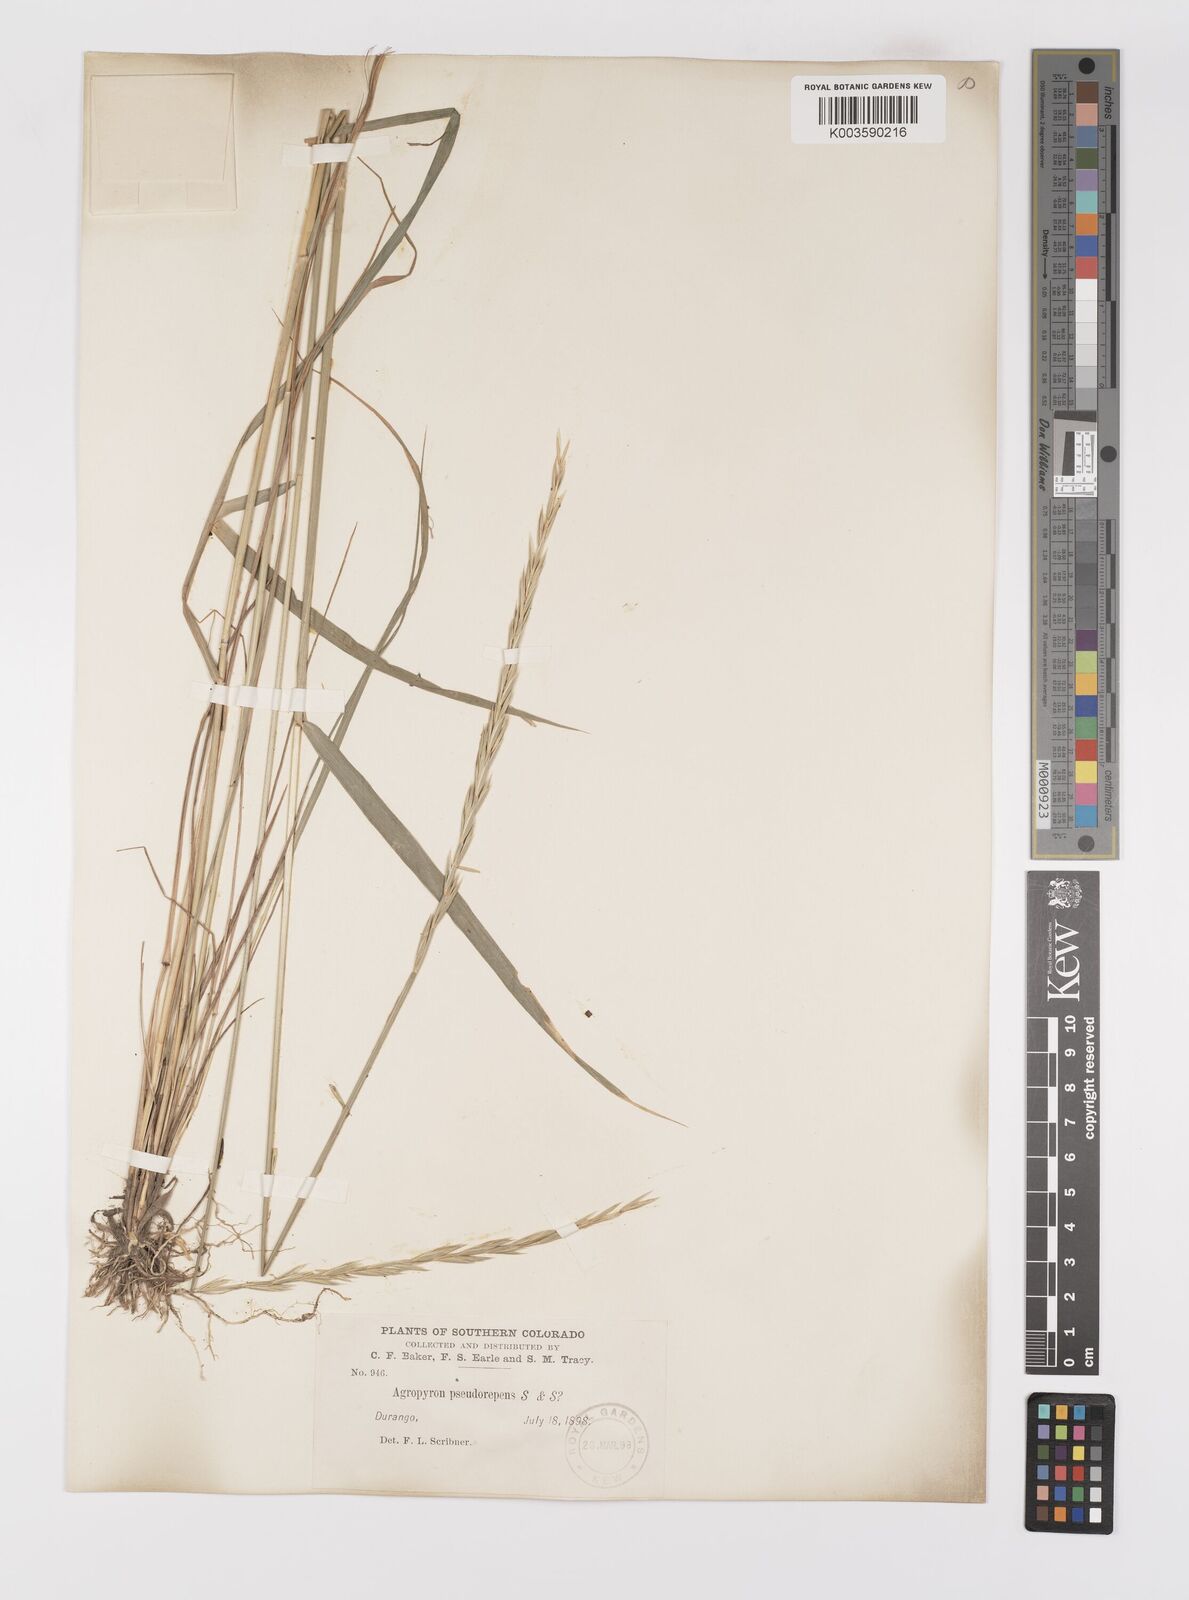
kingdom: Plantae
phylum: Tracheophyta
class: Liliopsida
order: Poales
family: Poaceae
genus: Elymus
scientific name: Elymus violaceus
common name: Arctic wheatgrass
